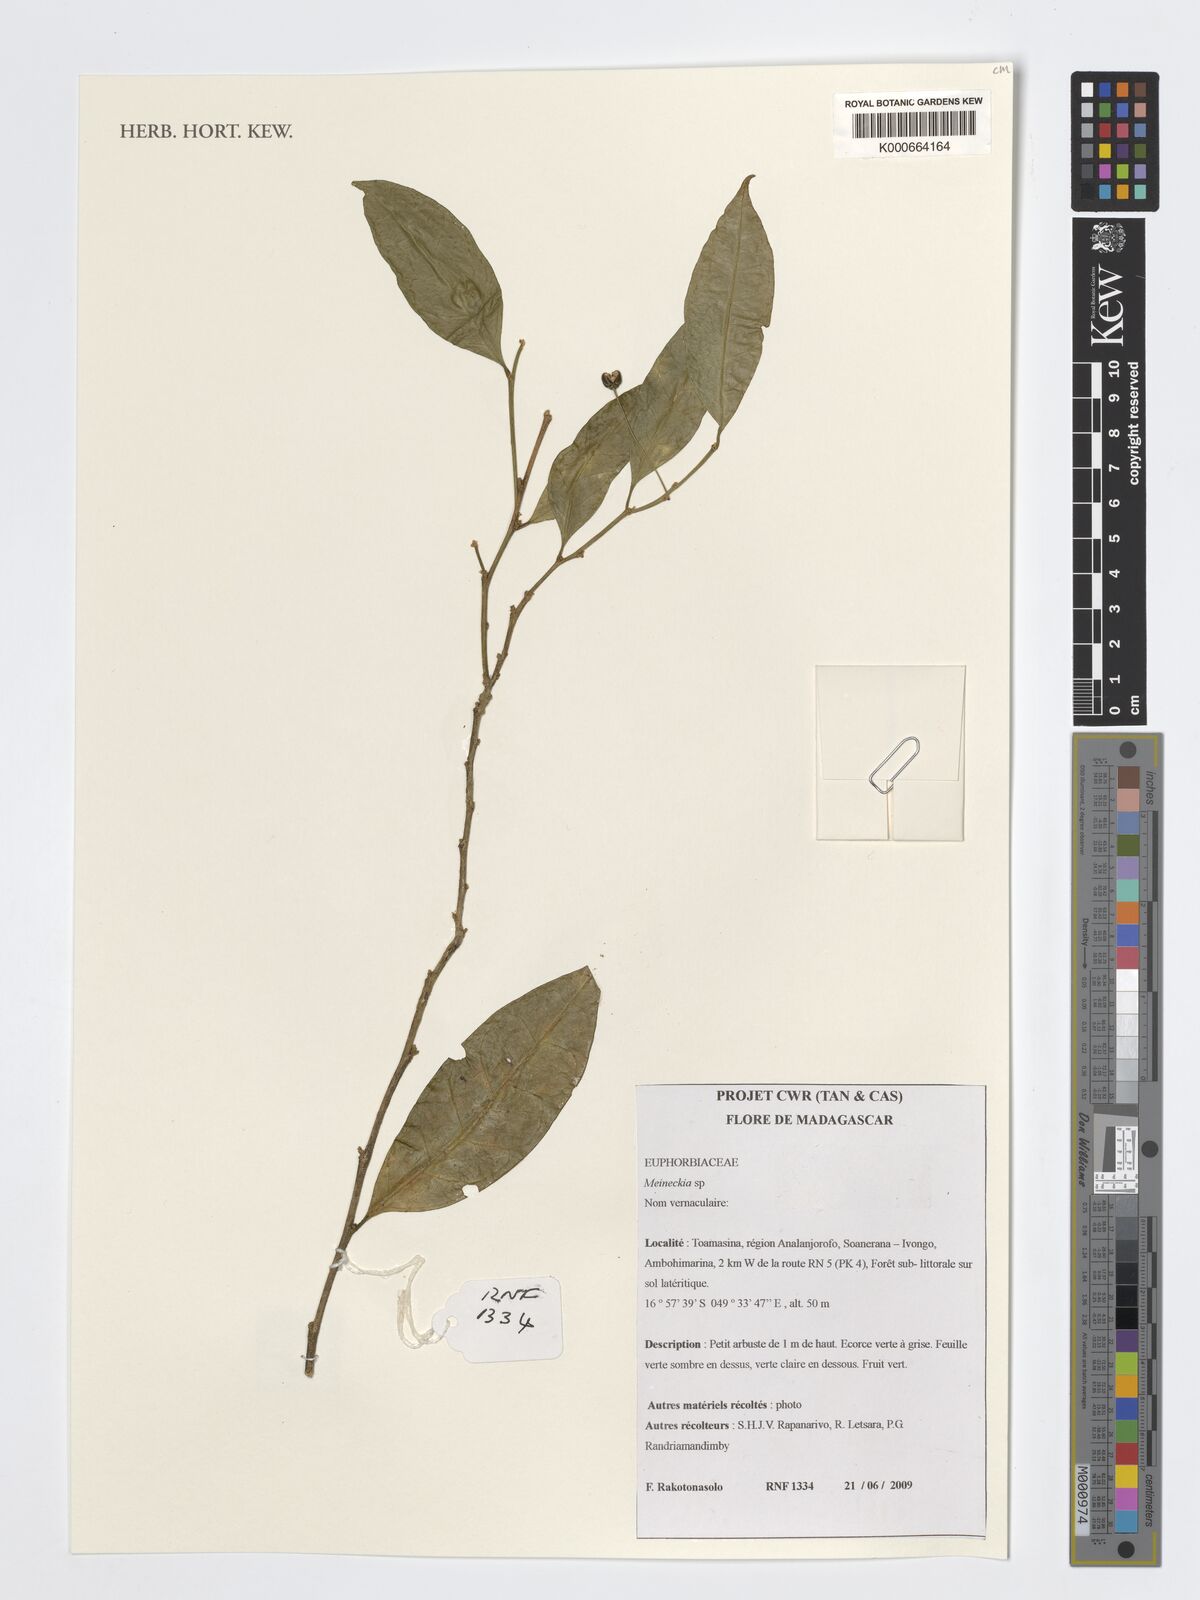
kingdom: Plantae
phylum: Tracheophyta
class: Magnoliopsida
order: Malpighiales
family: Phyllanthaceae
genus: Meineckia
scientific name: Meineckia
